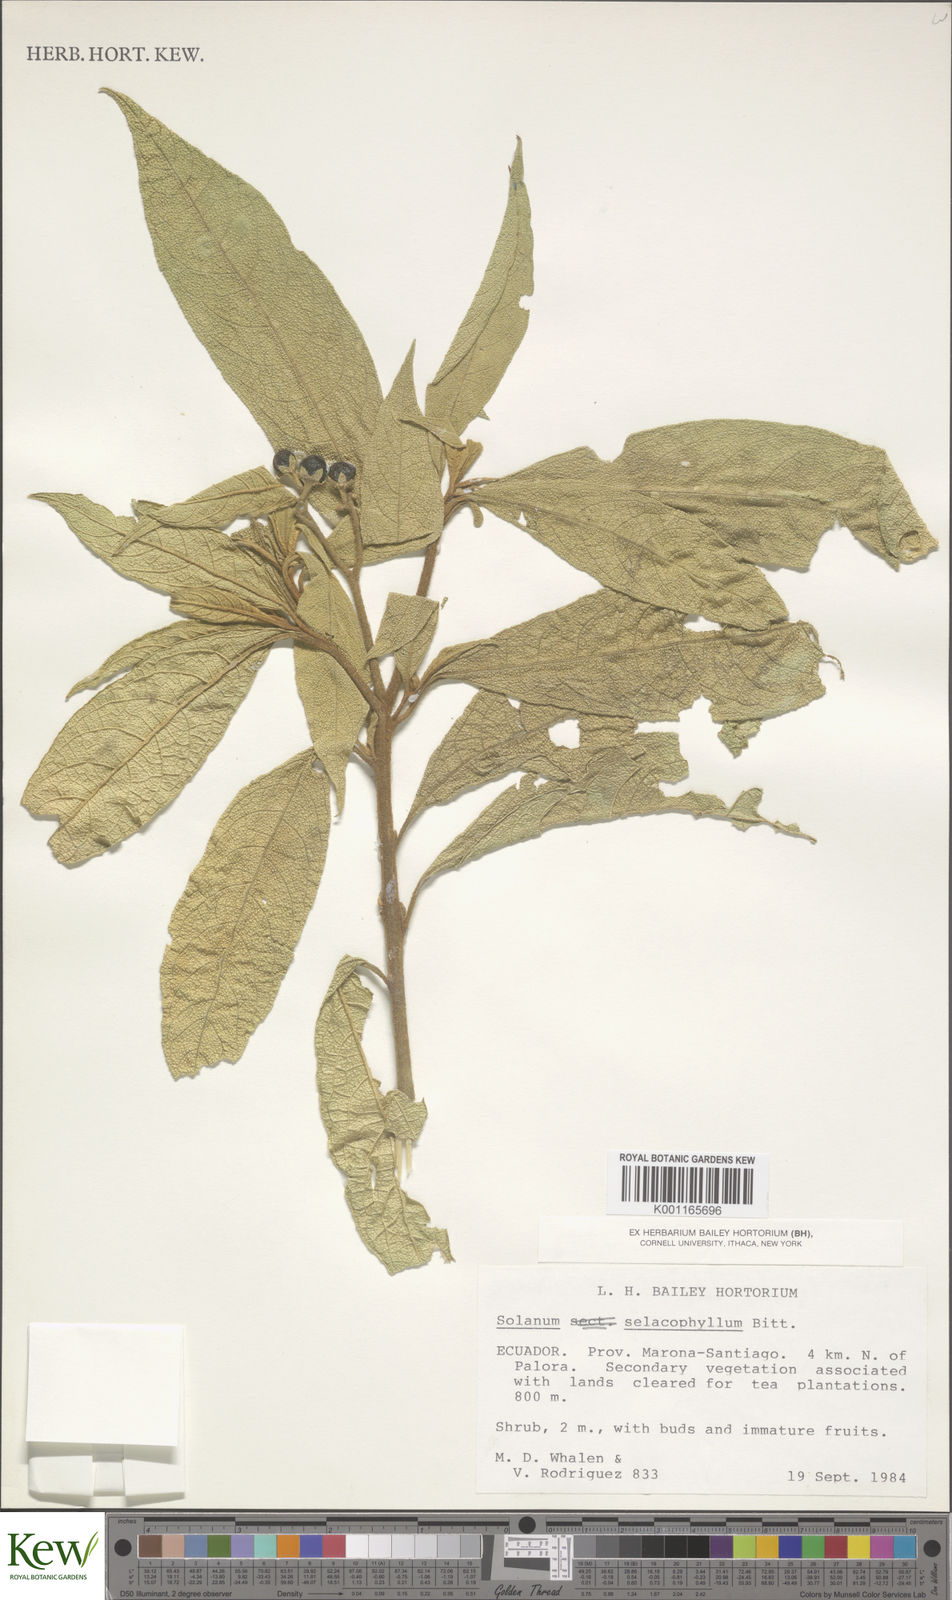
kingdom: Plantae
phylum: Tracheophyta
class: Magnoliopsida
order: Solanales
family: Solanaceae
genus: Solanum
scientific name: Solanum selachophyllum
